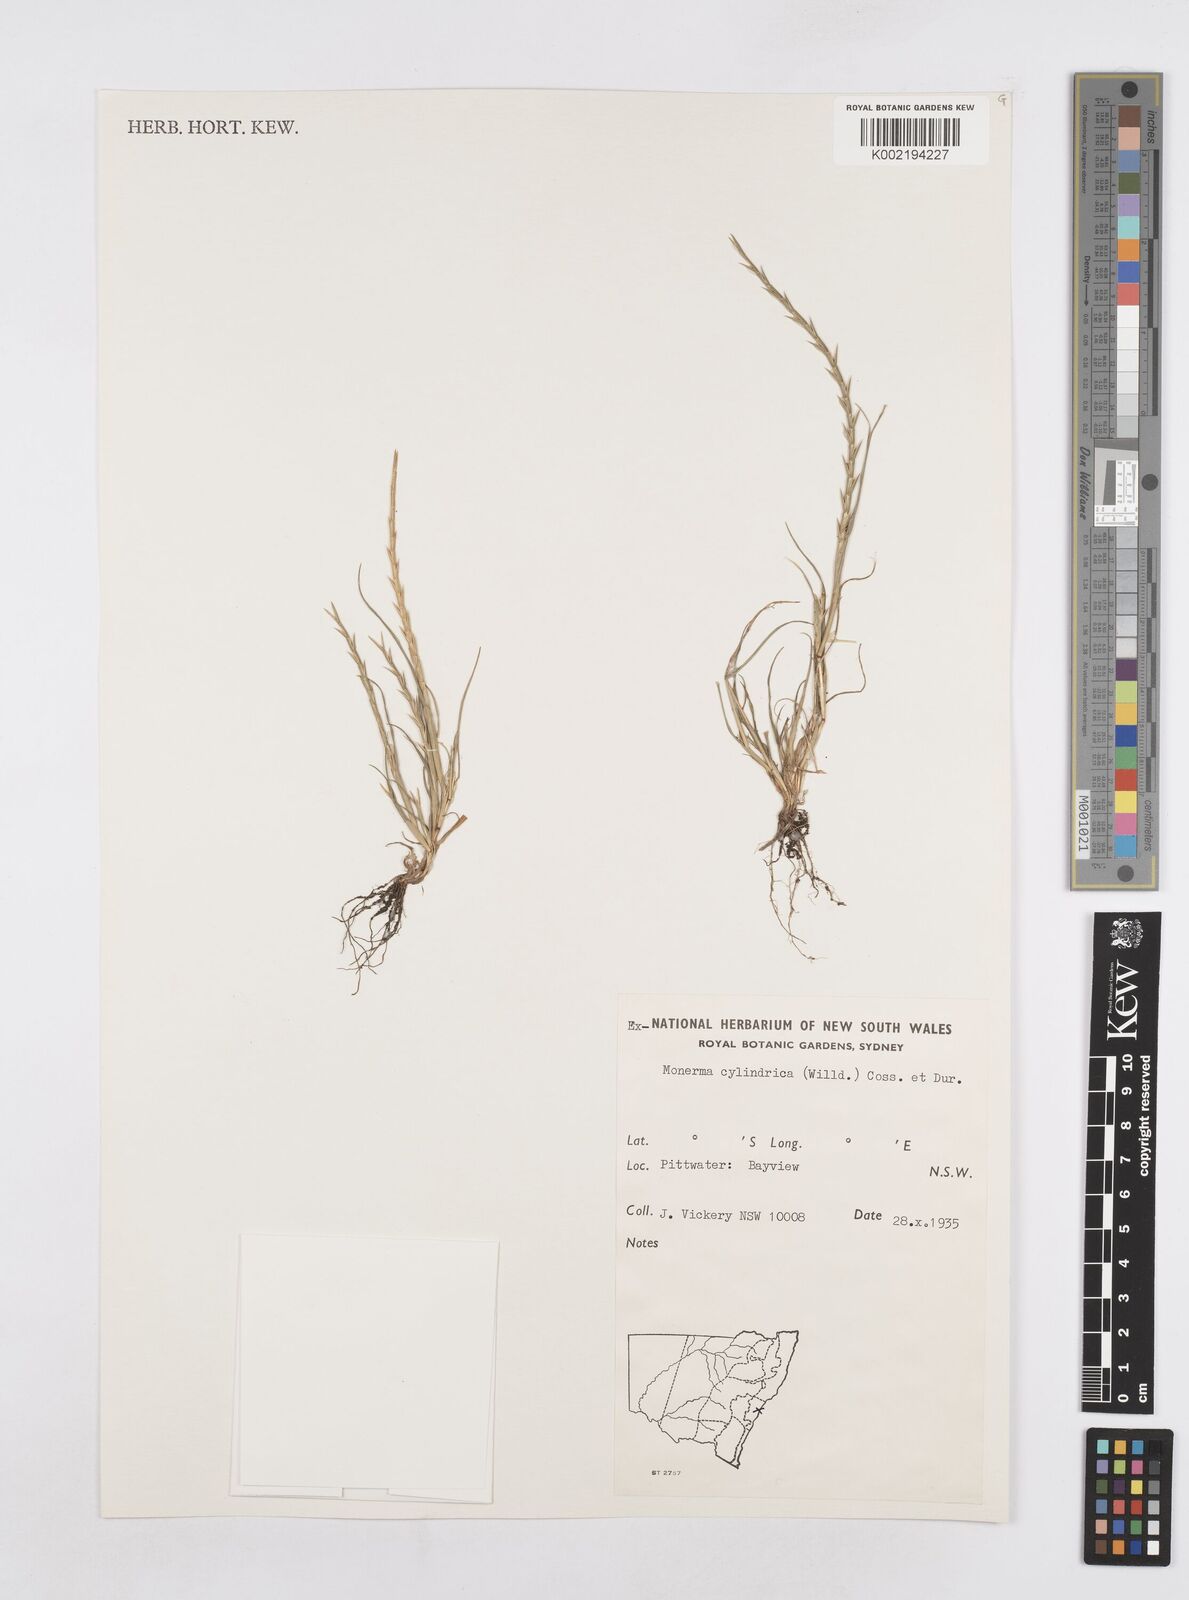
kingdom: Plantae
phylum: Tracheophyta
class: Liliopsida
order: Poales
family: Poaceae
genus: Parapholis
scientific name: Parapholis cylindrica
